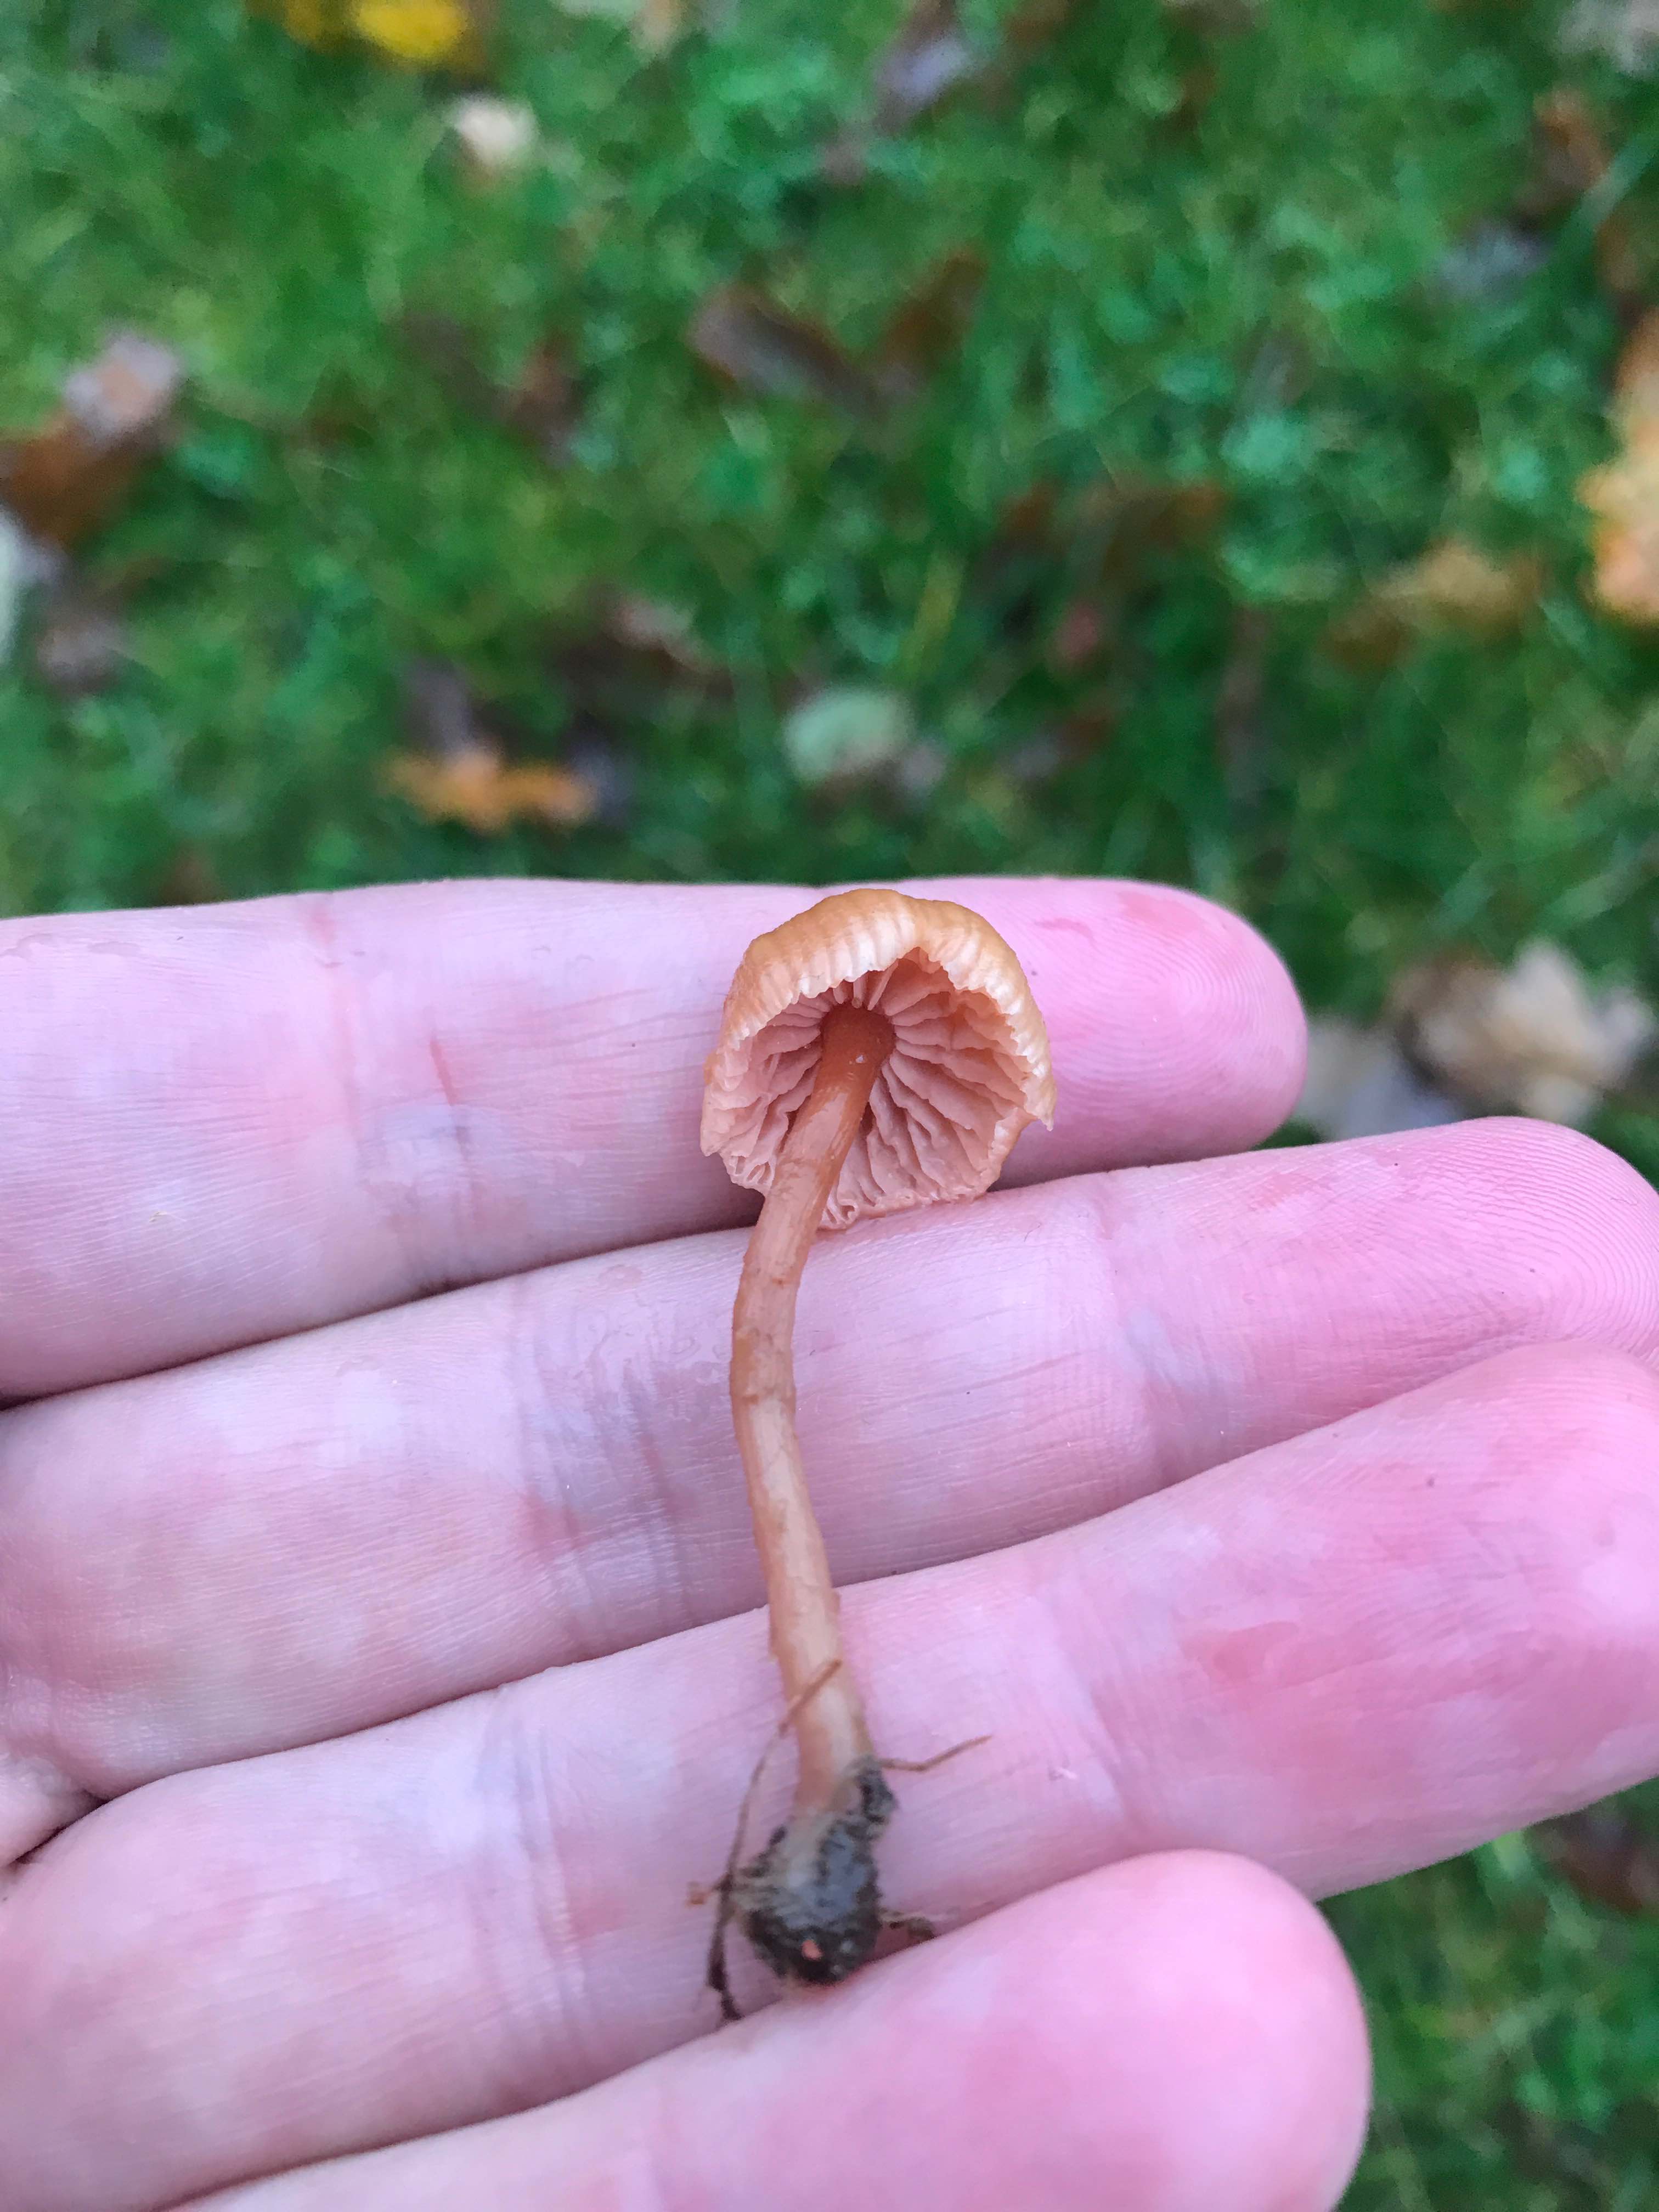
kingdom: Fungi
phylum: Basidiomycota
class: Agaricomycetes
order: Agaricales
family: Hydnangiaceae
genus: Laccaria
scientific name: Laccaria laccata
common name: rød ametysthat
